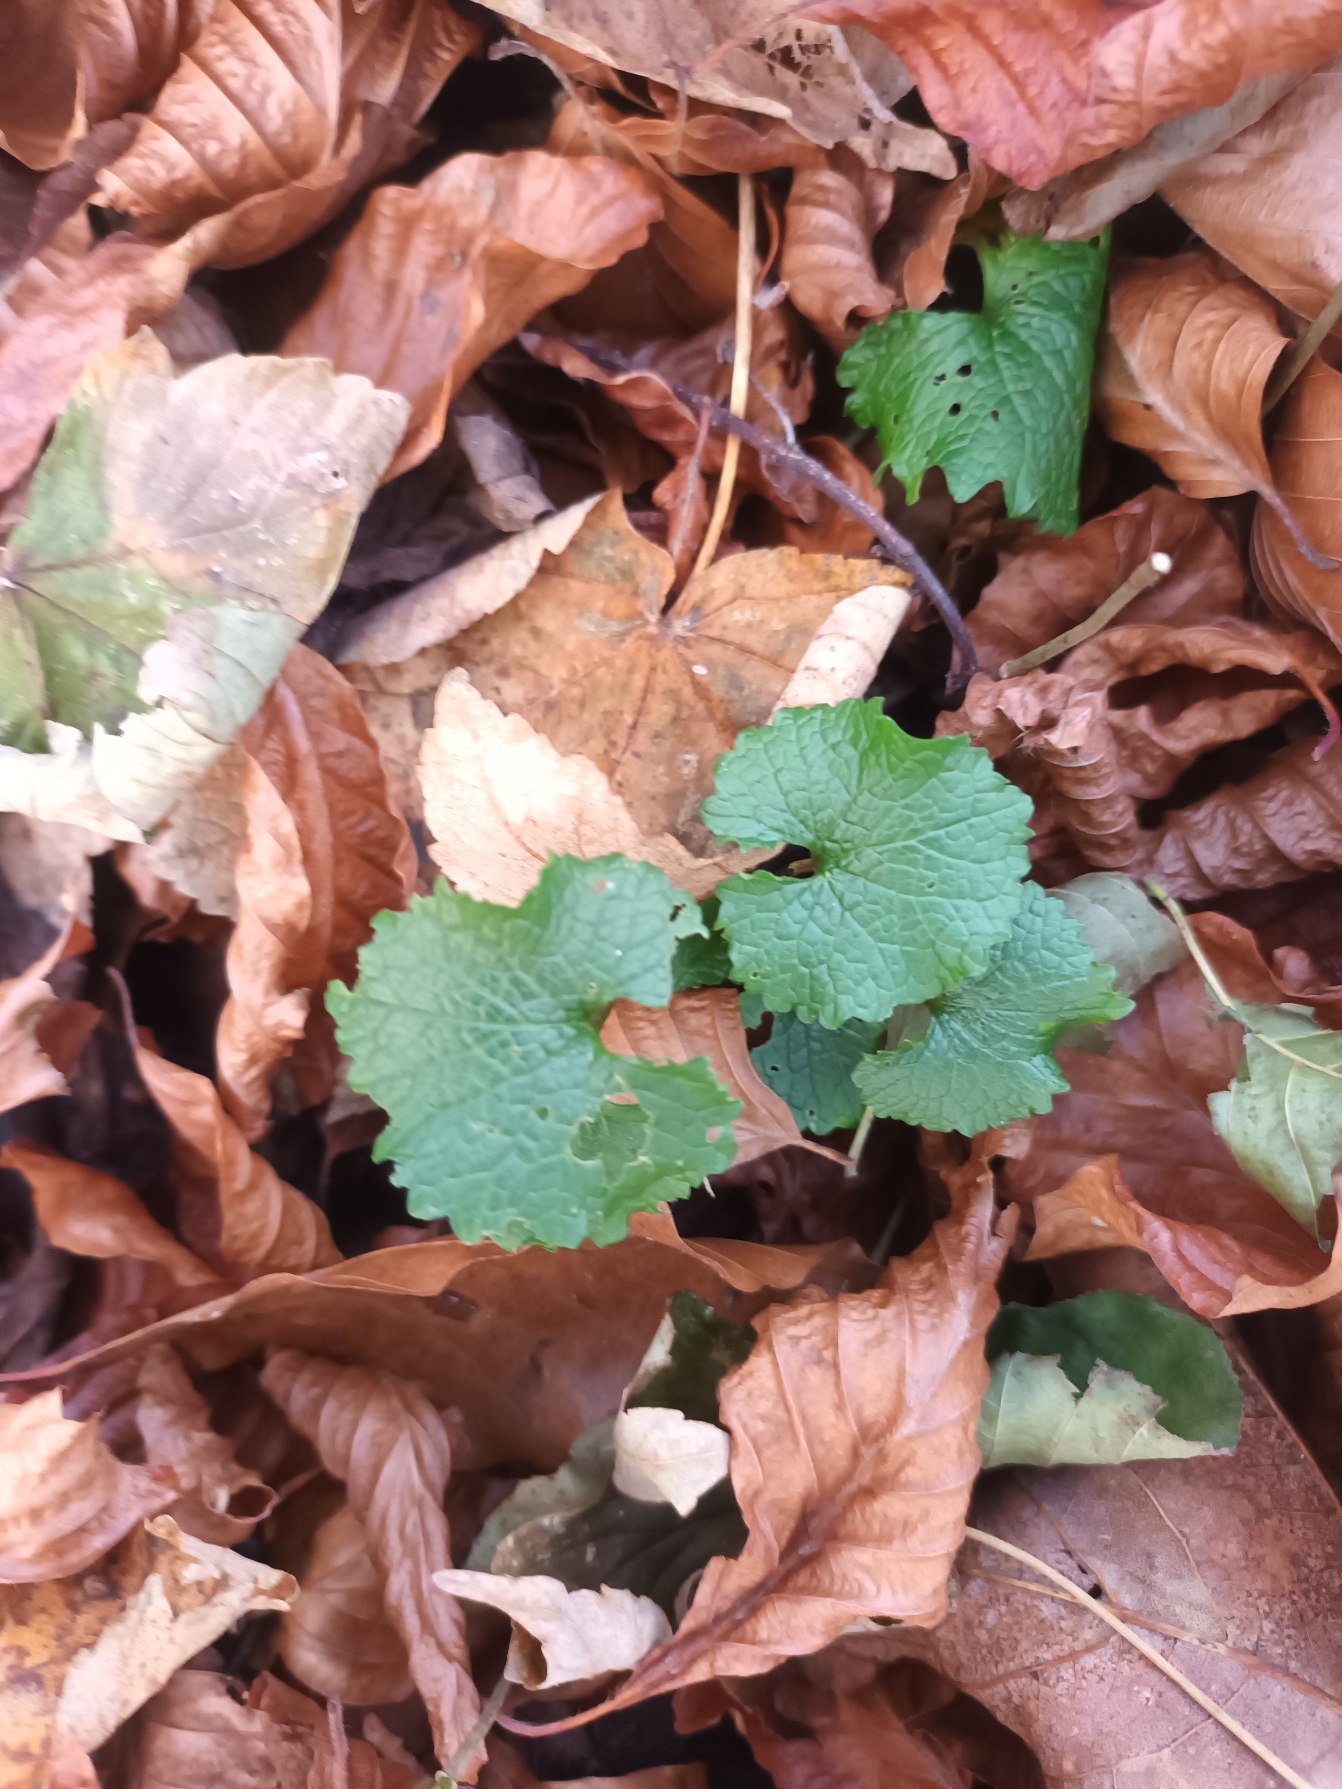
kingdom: Plantae
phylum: Tracheophyta
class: Magnoliopsida
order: Brassicales
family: Brassicaceae
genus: Alliaria
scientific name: Alliaria petiolata
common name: Løgkarse
